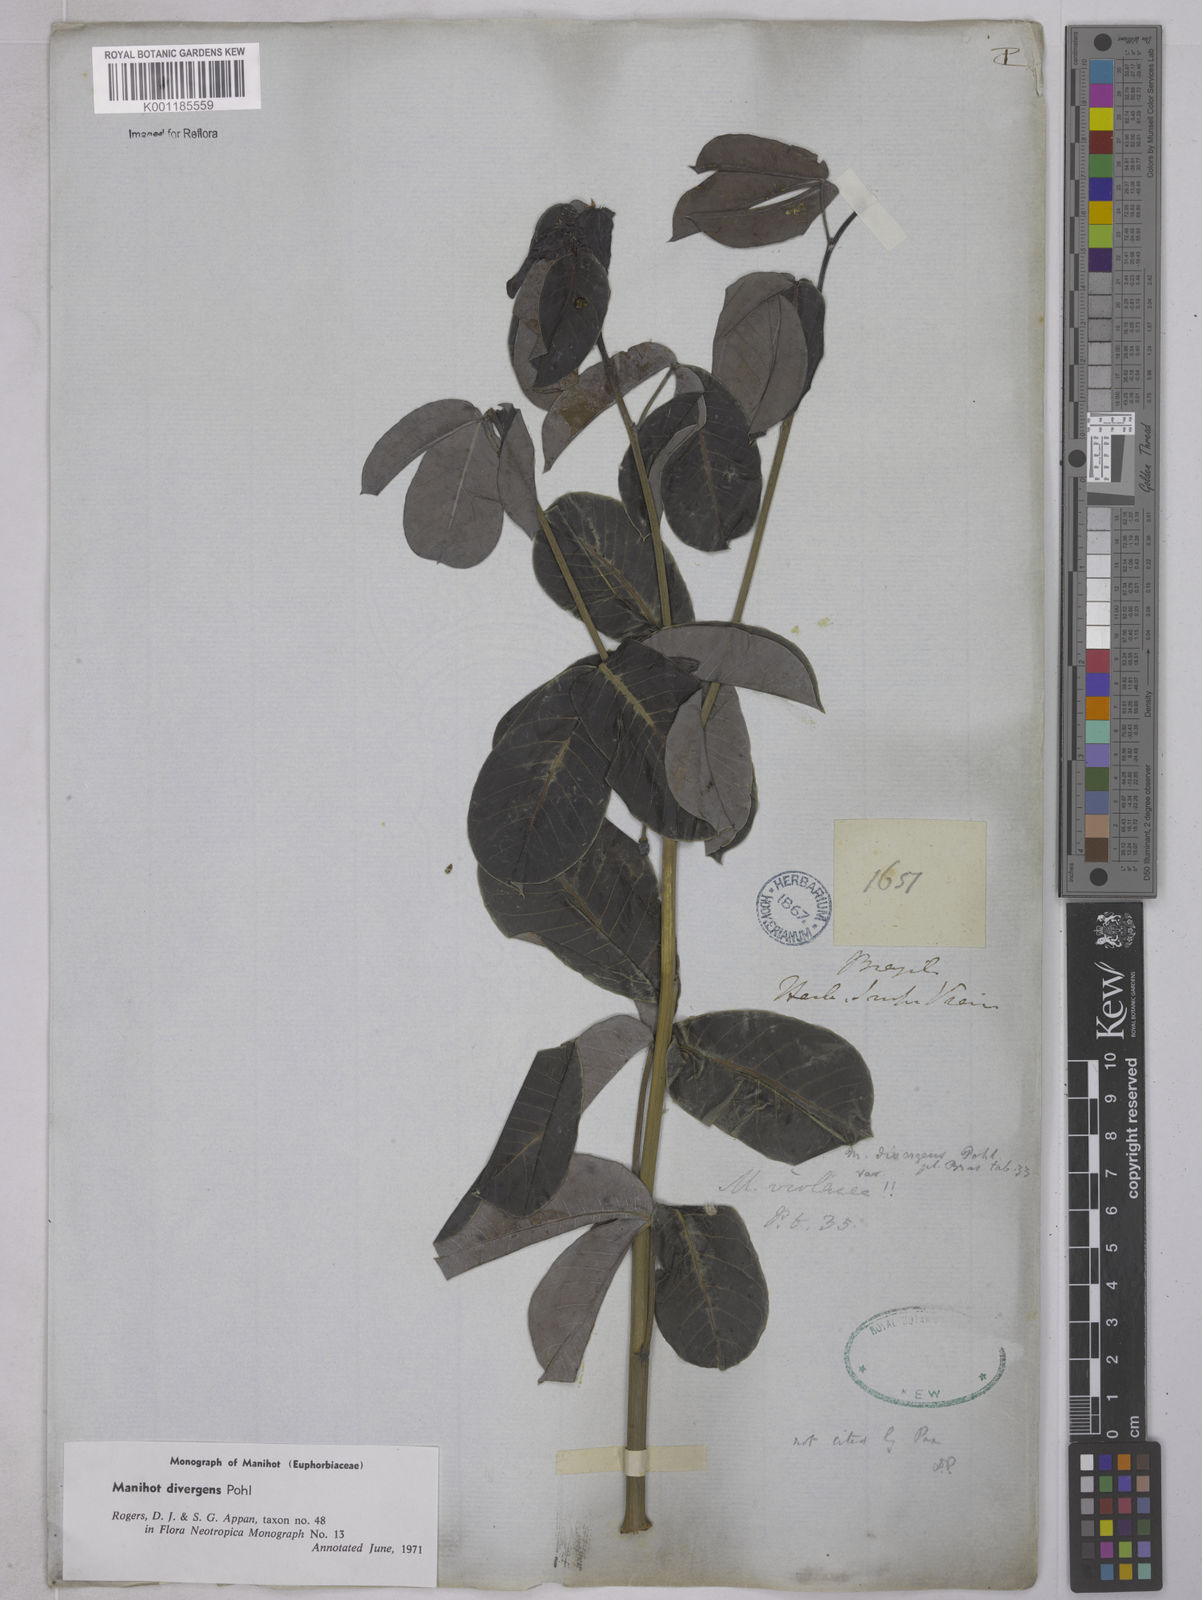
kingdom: Plantae
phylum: Tracheophyta
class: Magnoliopsida
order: Malpighiales
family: Euphorbiaceae
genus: Manihot
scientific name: Manihot divergens
